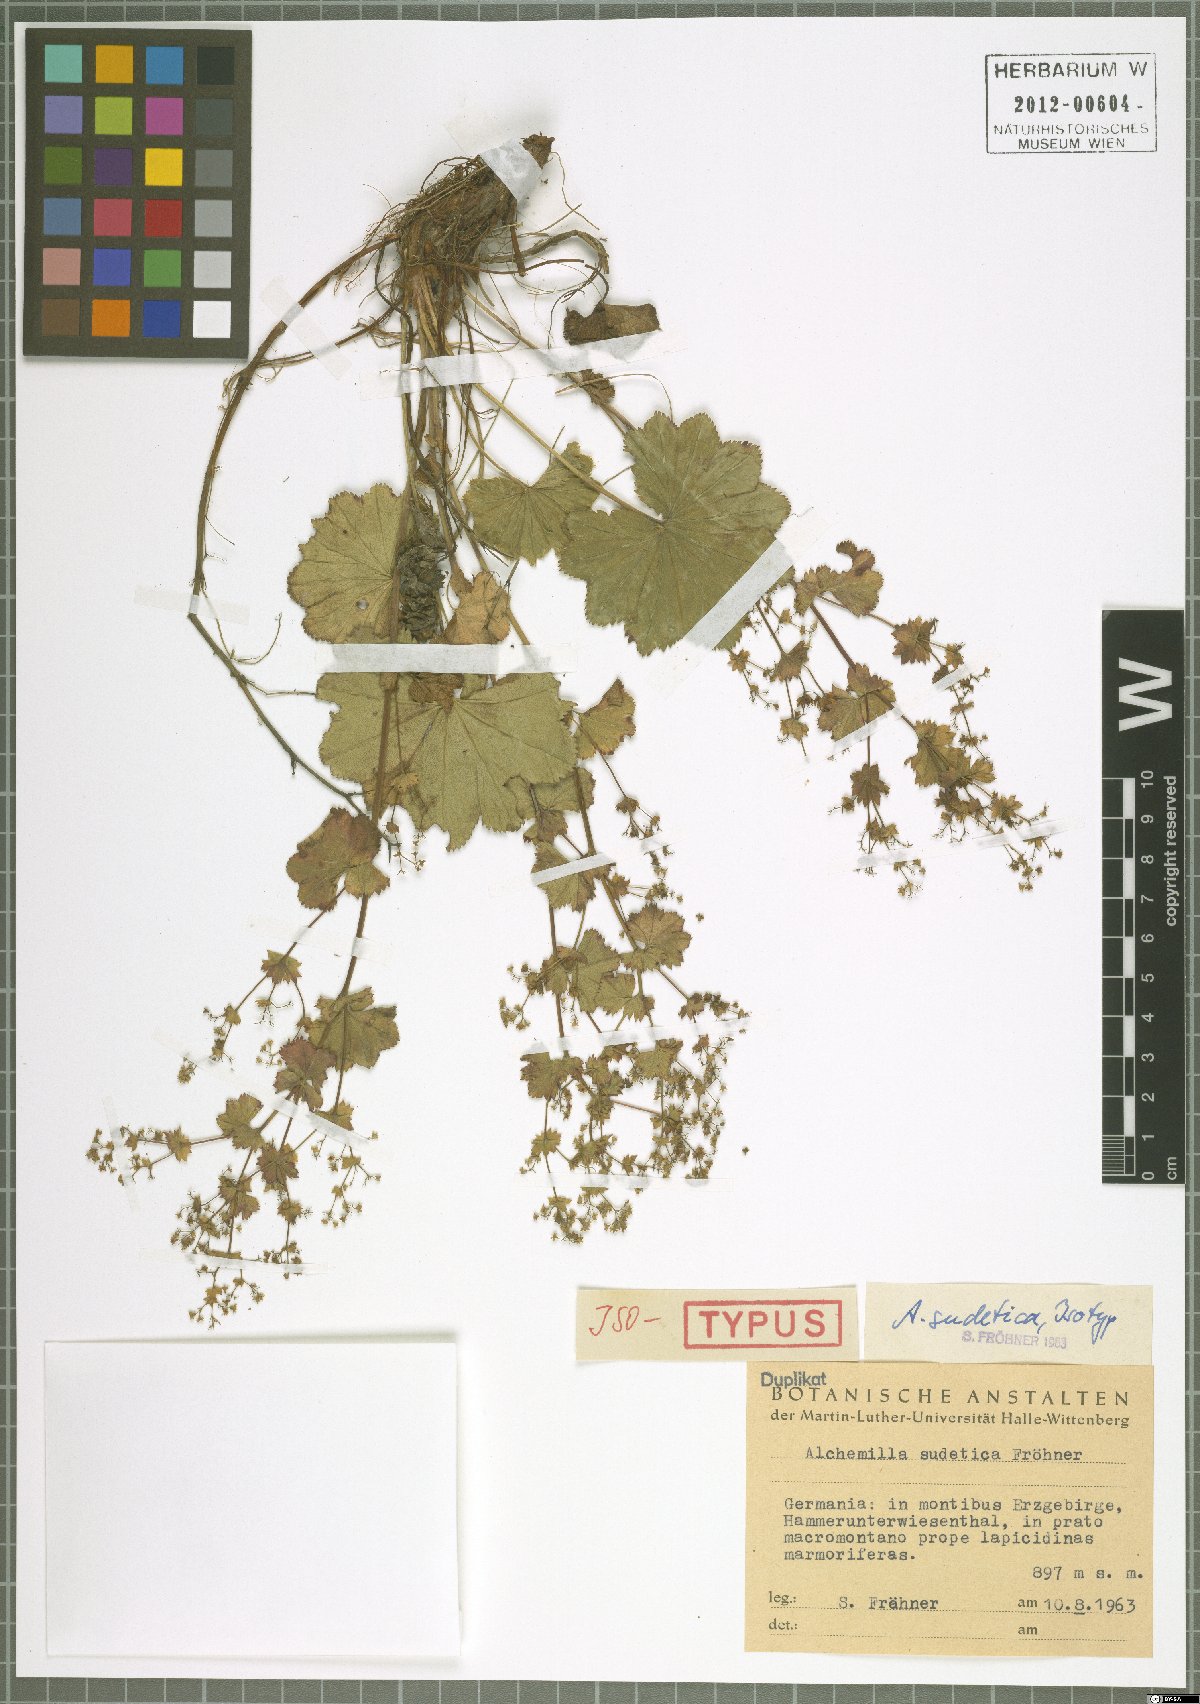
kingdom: Plantae
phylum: Tracheophyta
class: Magnoliopsida
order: Rosales
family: Rosaceae
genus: Alchemilla
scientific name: Alchemilla reniformis
